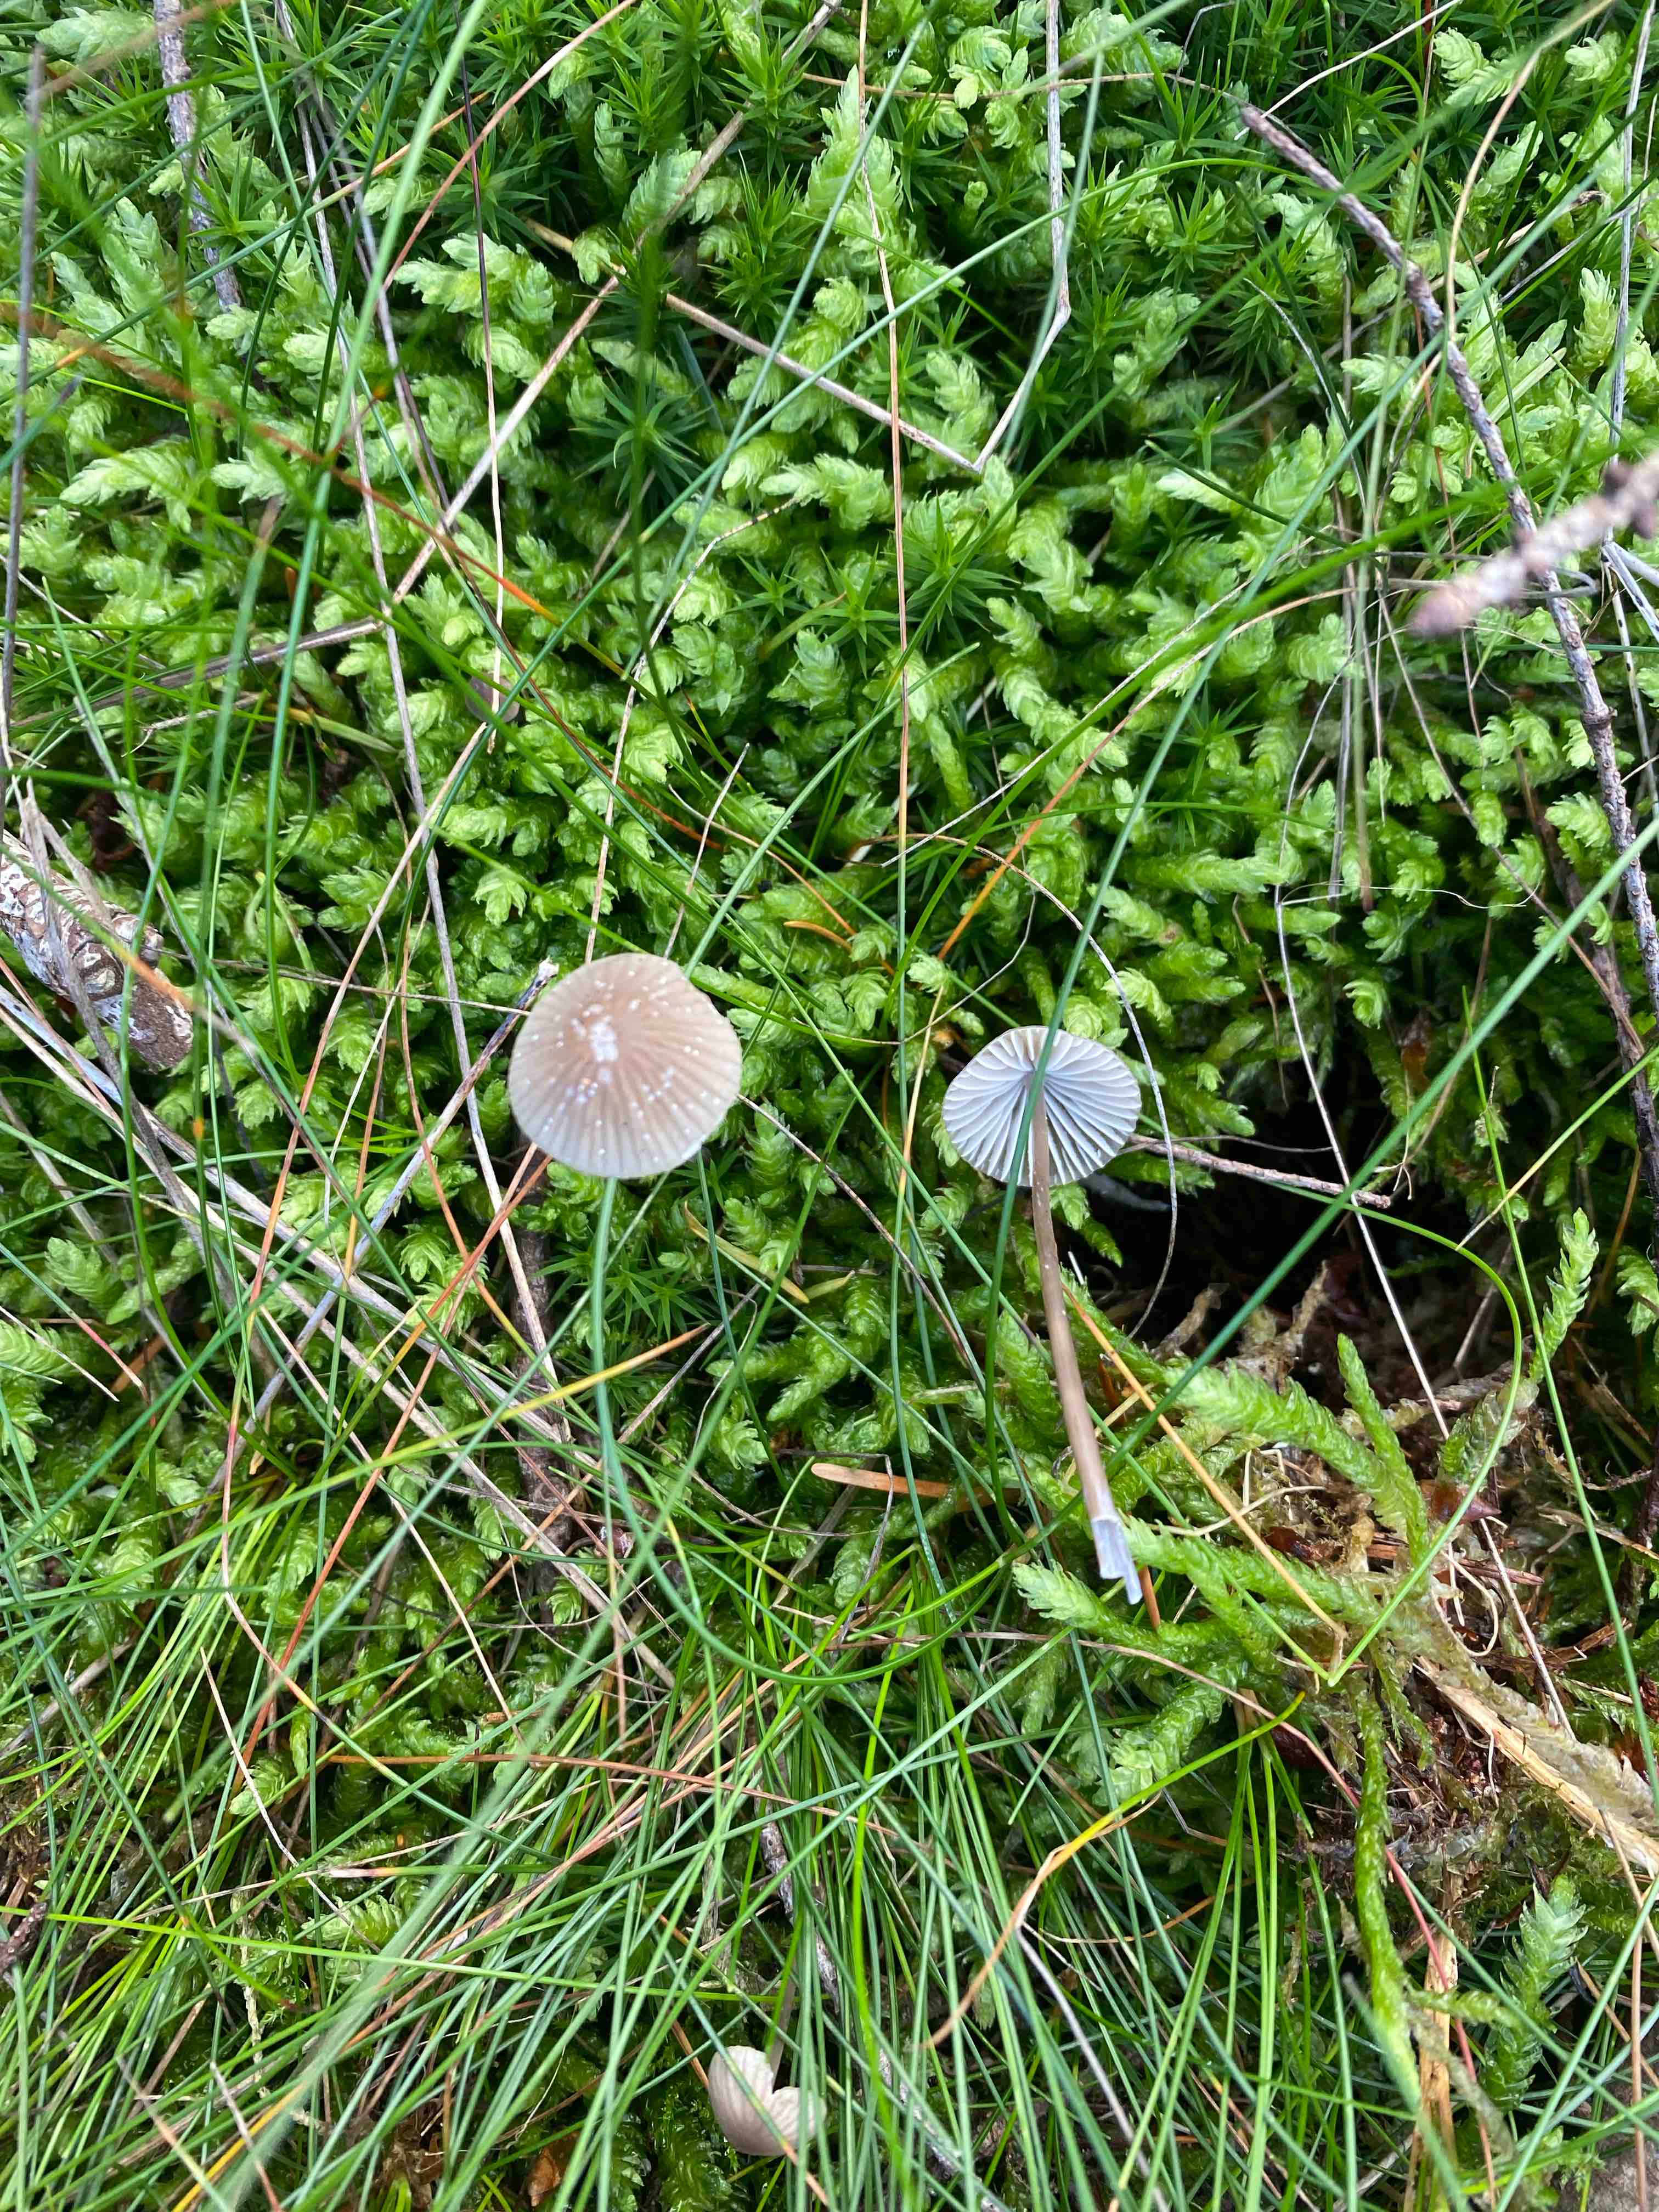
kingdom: Fungi
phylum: Basidiomycota
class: Agaricomycetes
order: Agaricales
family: Mycenaceae
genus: Mycena
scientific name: Mycena
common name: huesvamp
